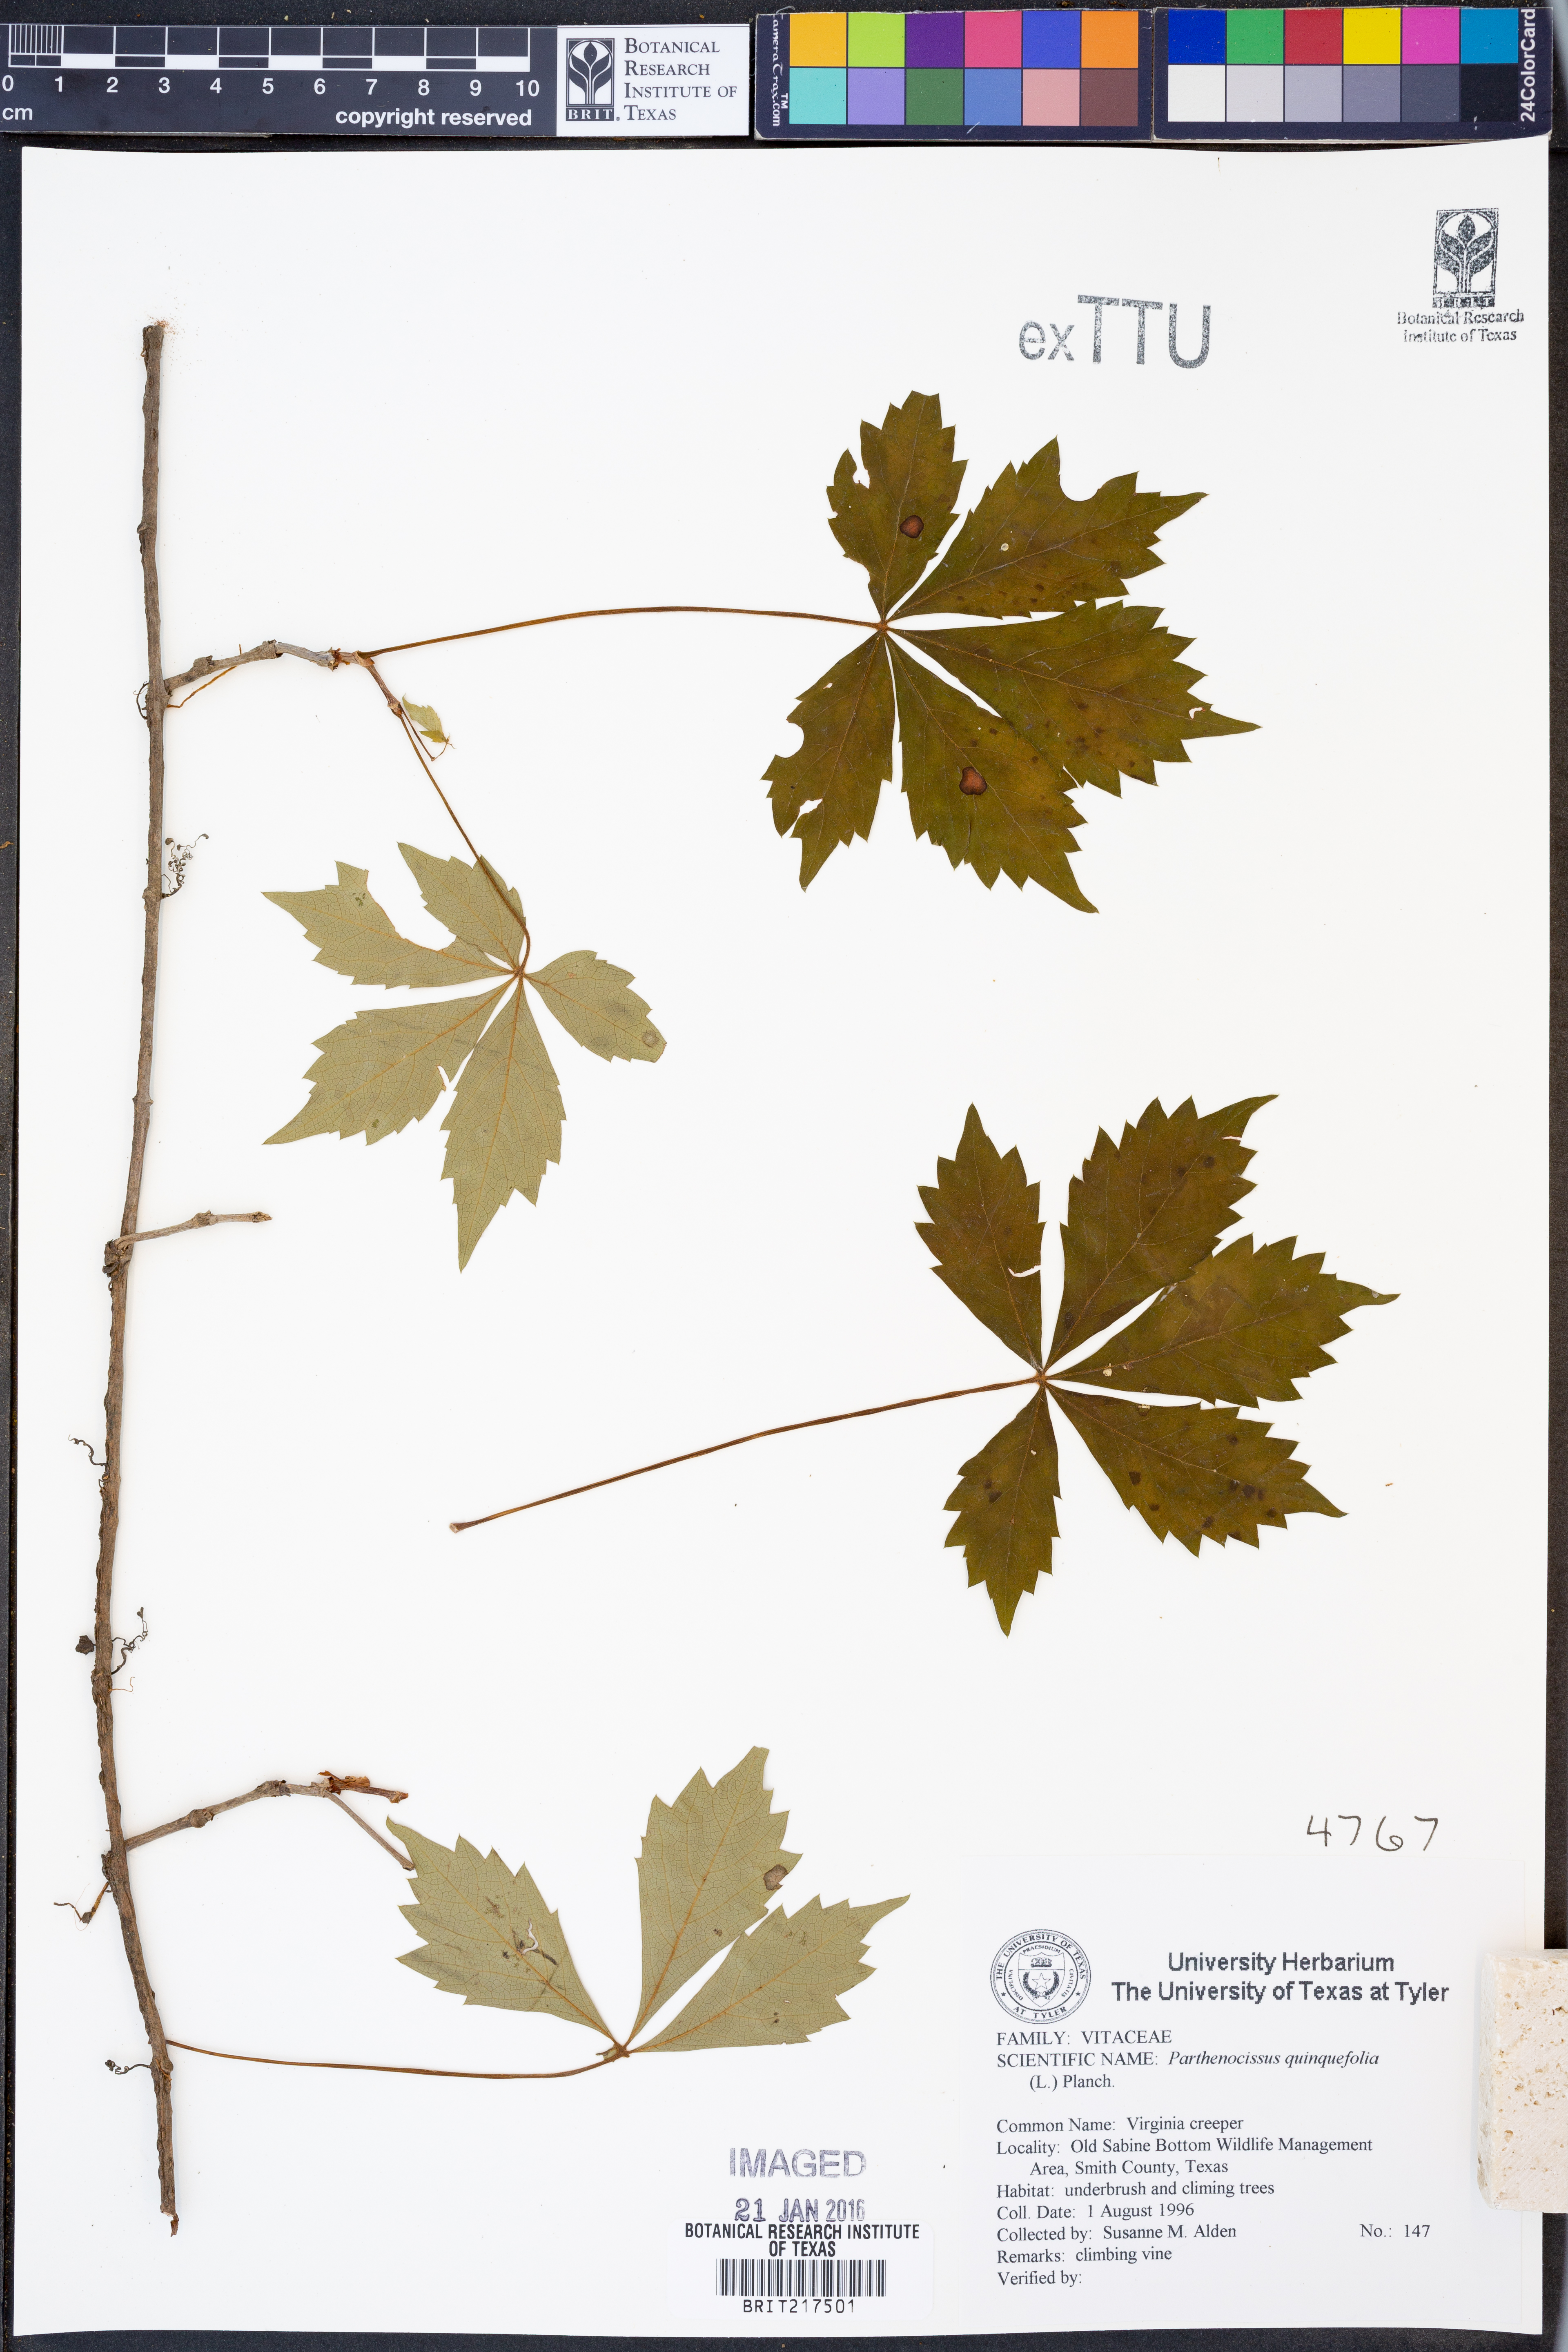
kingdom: Plantae
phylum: Tracheophyta
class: Magnoliopsida
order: Vitales
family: Vitaceae
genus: Parthenocissus
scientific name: Parthenocissus quinquefolia
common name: Virginia-creeper
